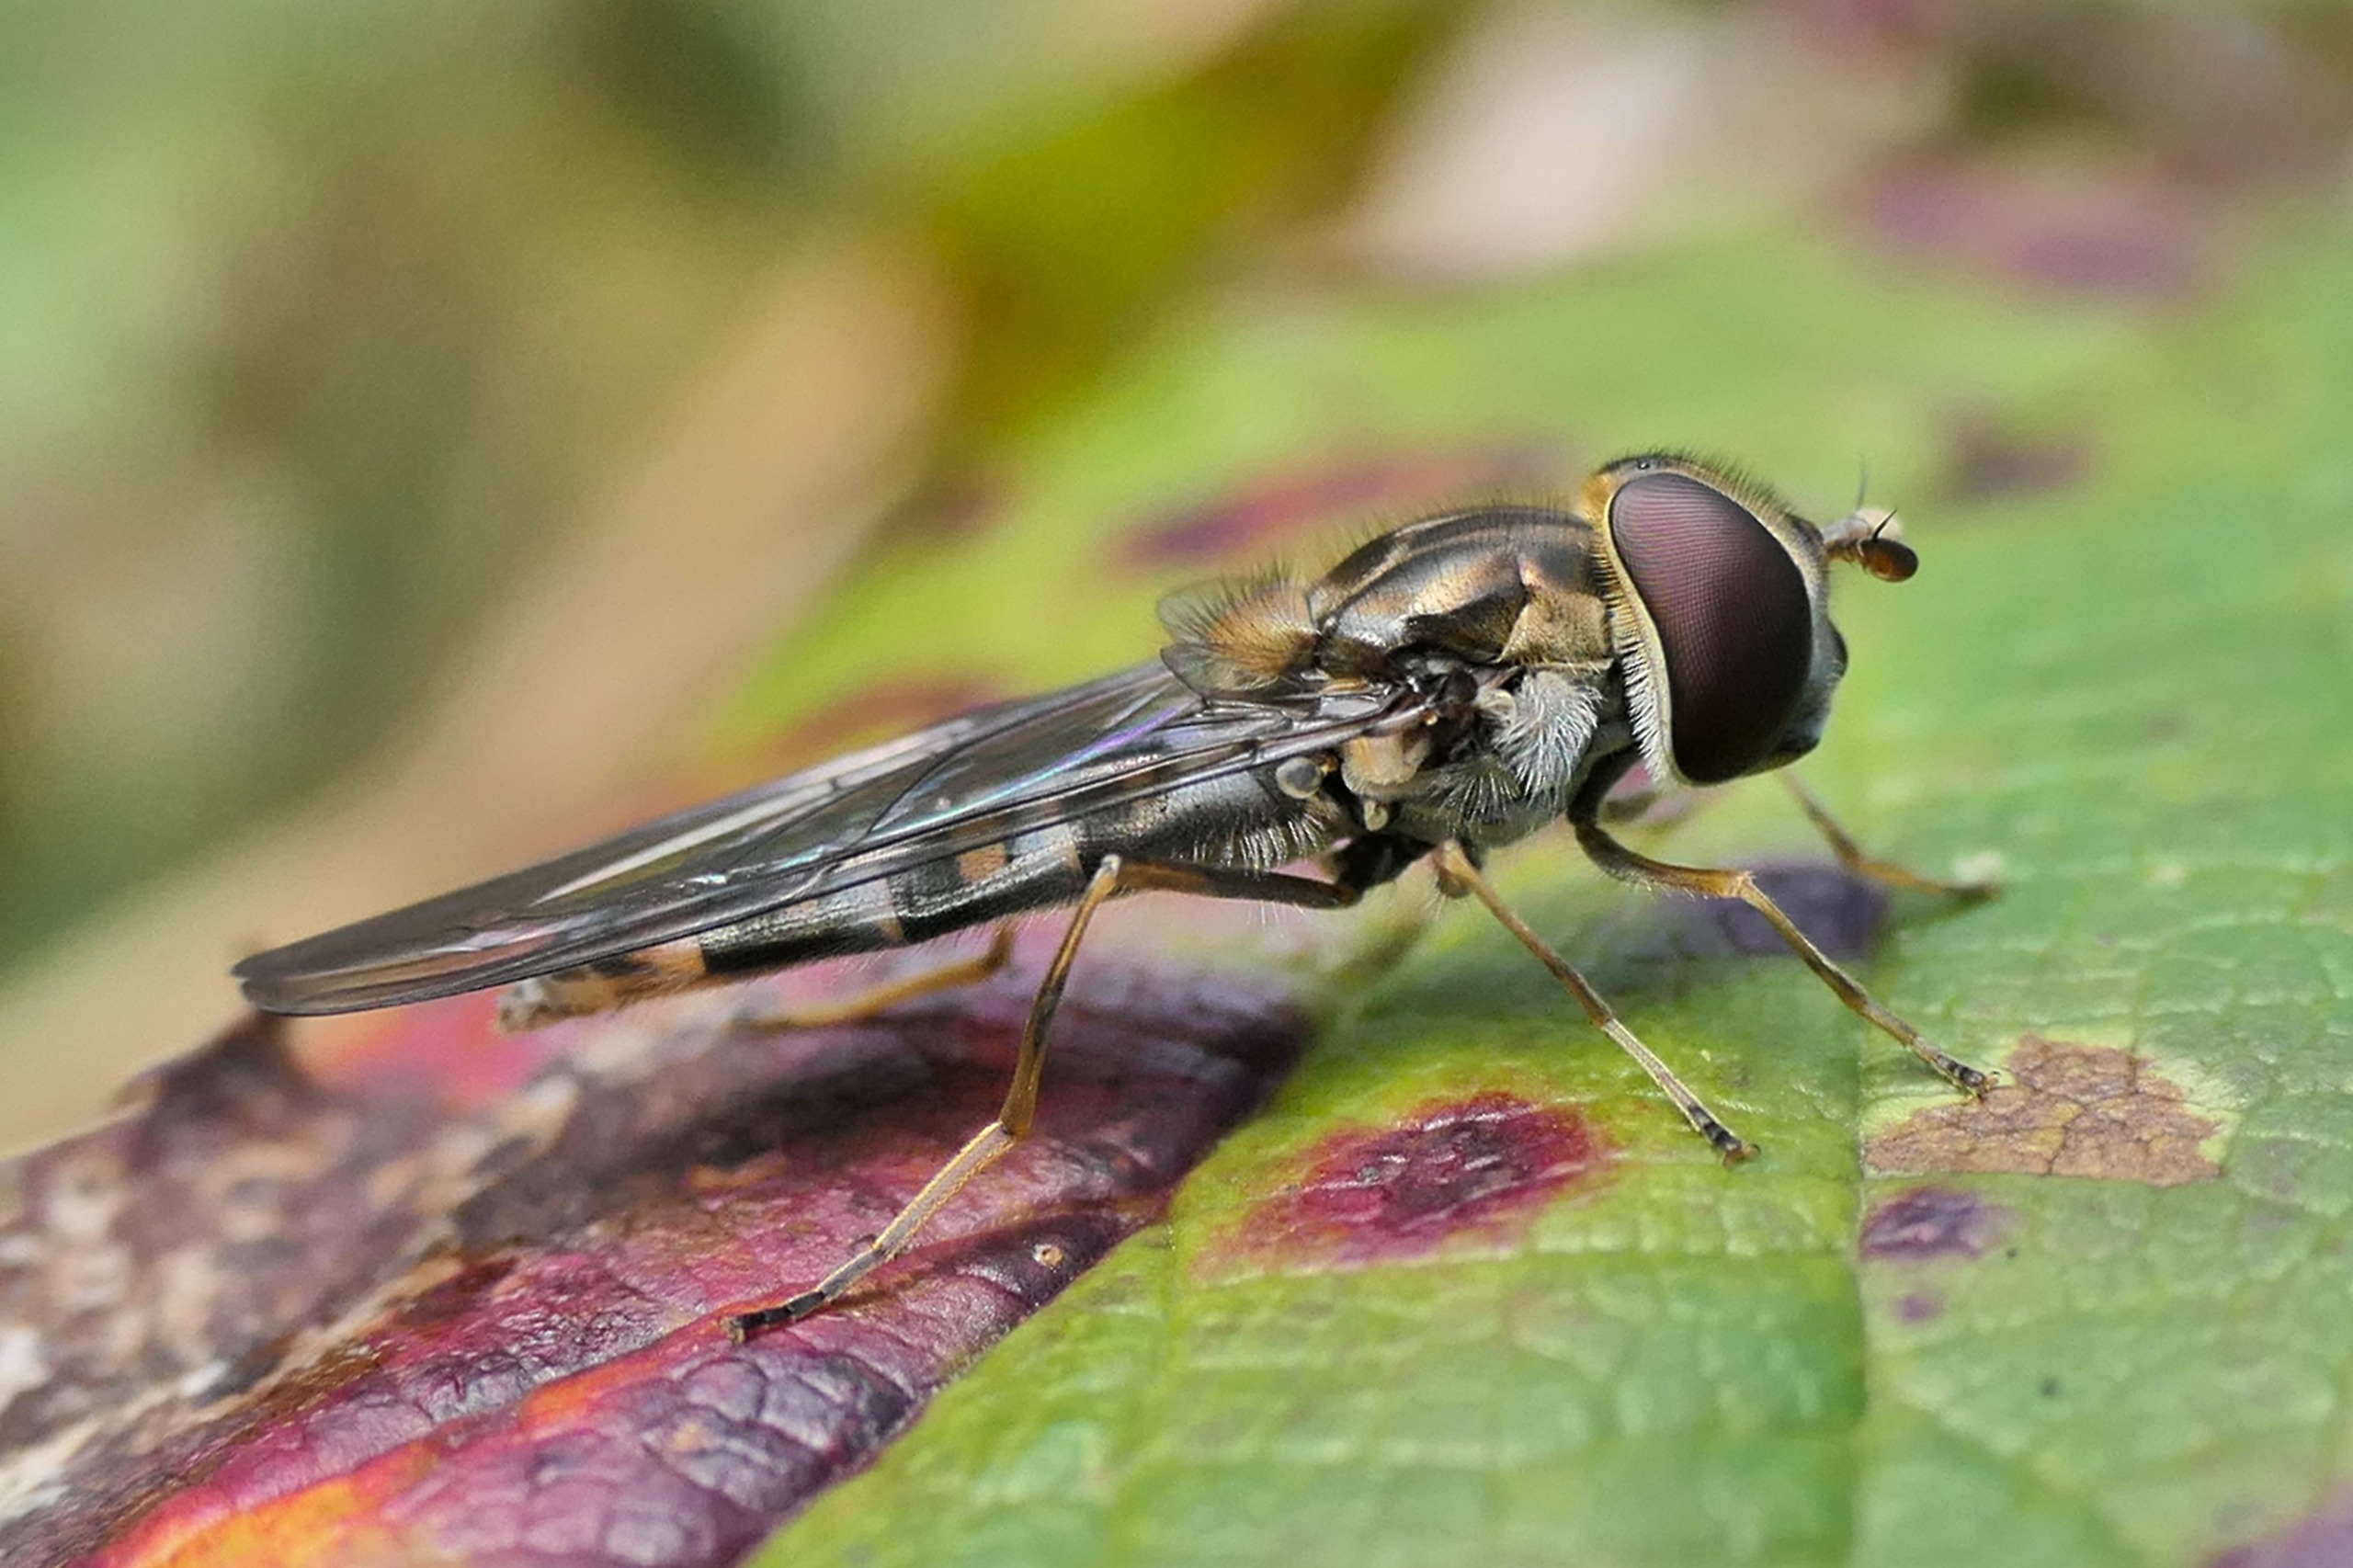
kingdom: Animalia
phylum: Arthropoda
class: Insecta
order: Diptera
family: Syrphidae
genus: Episyrphus
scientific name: Episyrphus balteatus
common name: Dobbeltbåndet svirreflue
